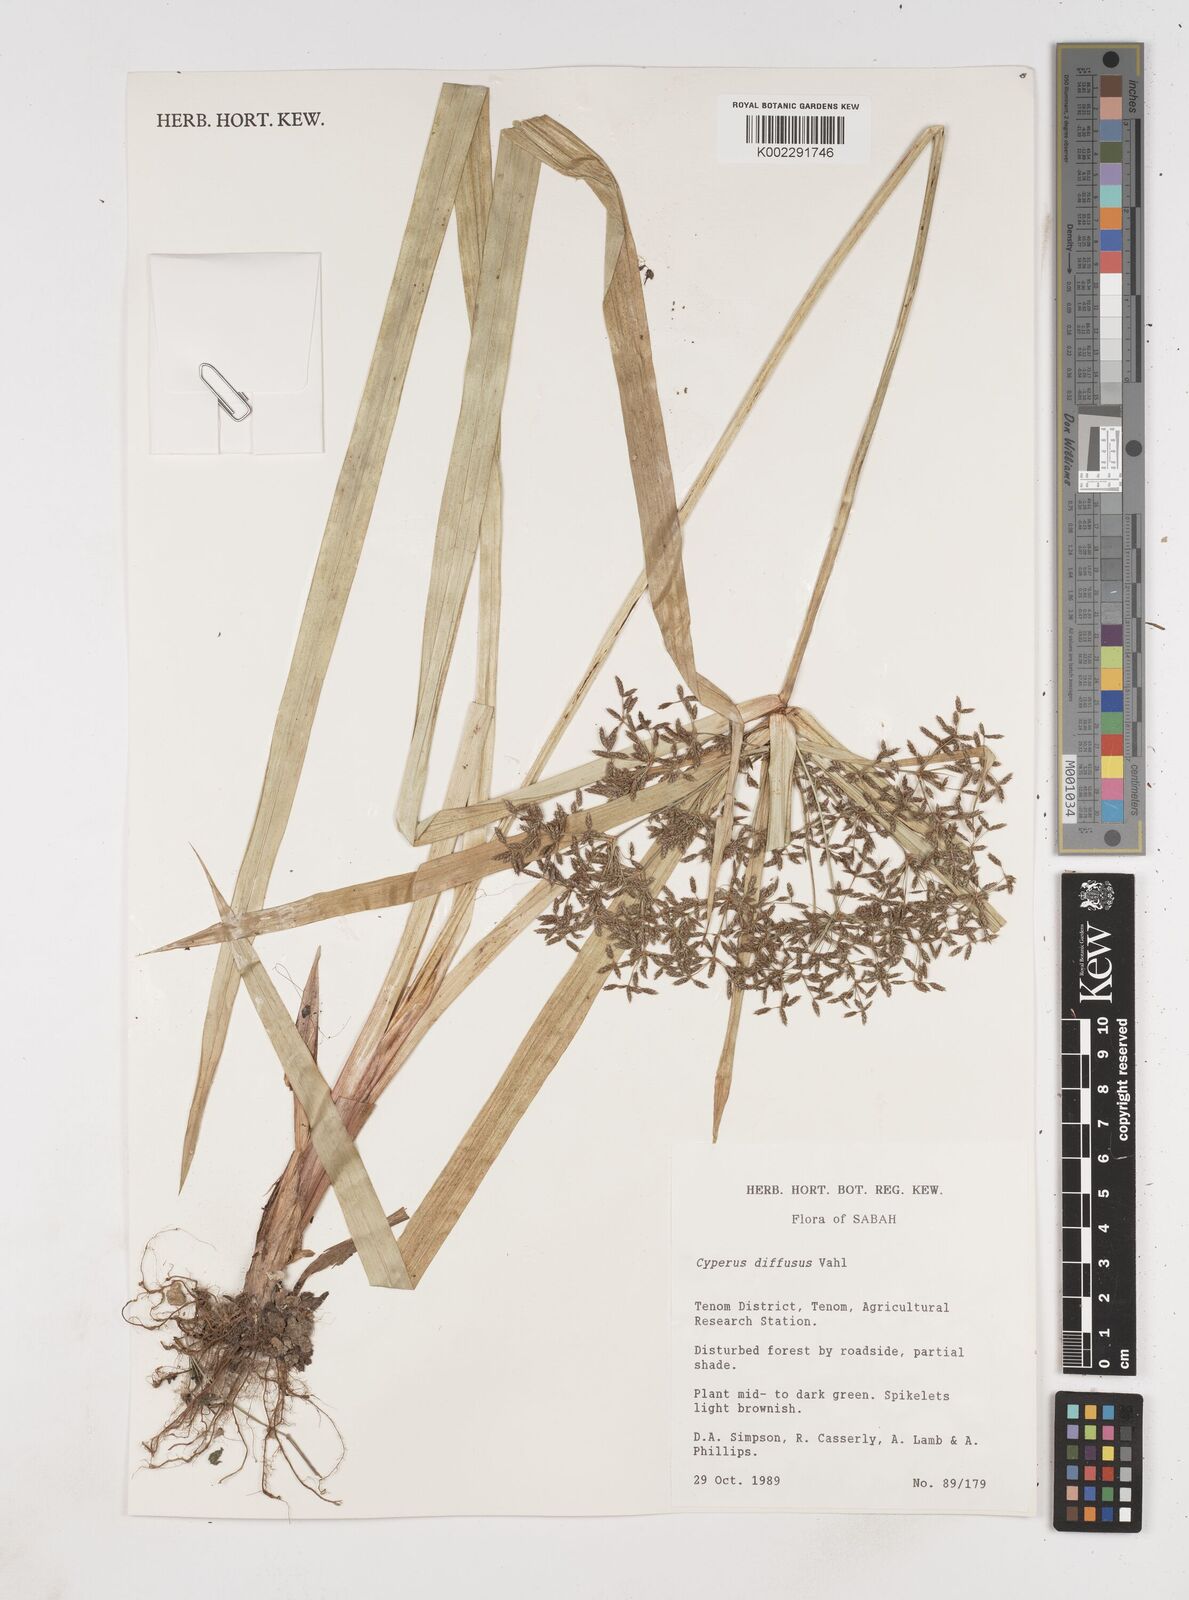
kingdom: Plantae
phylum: Tracheophyta
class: Liliopsida
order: Poales
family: Cyperaceae
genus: Cyperus
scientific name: Cyperus diffusus
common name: Dwarf umbrella grass
